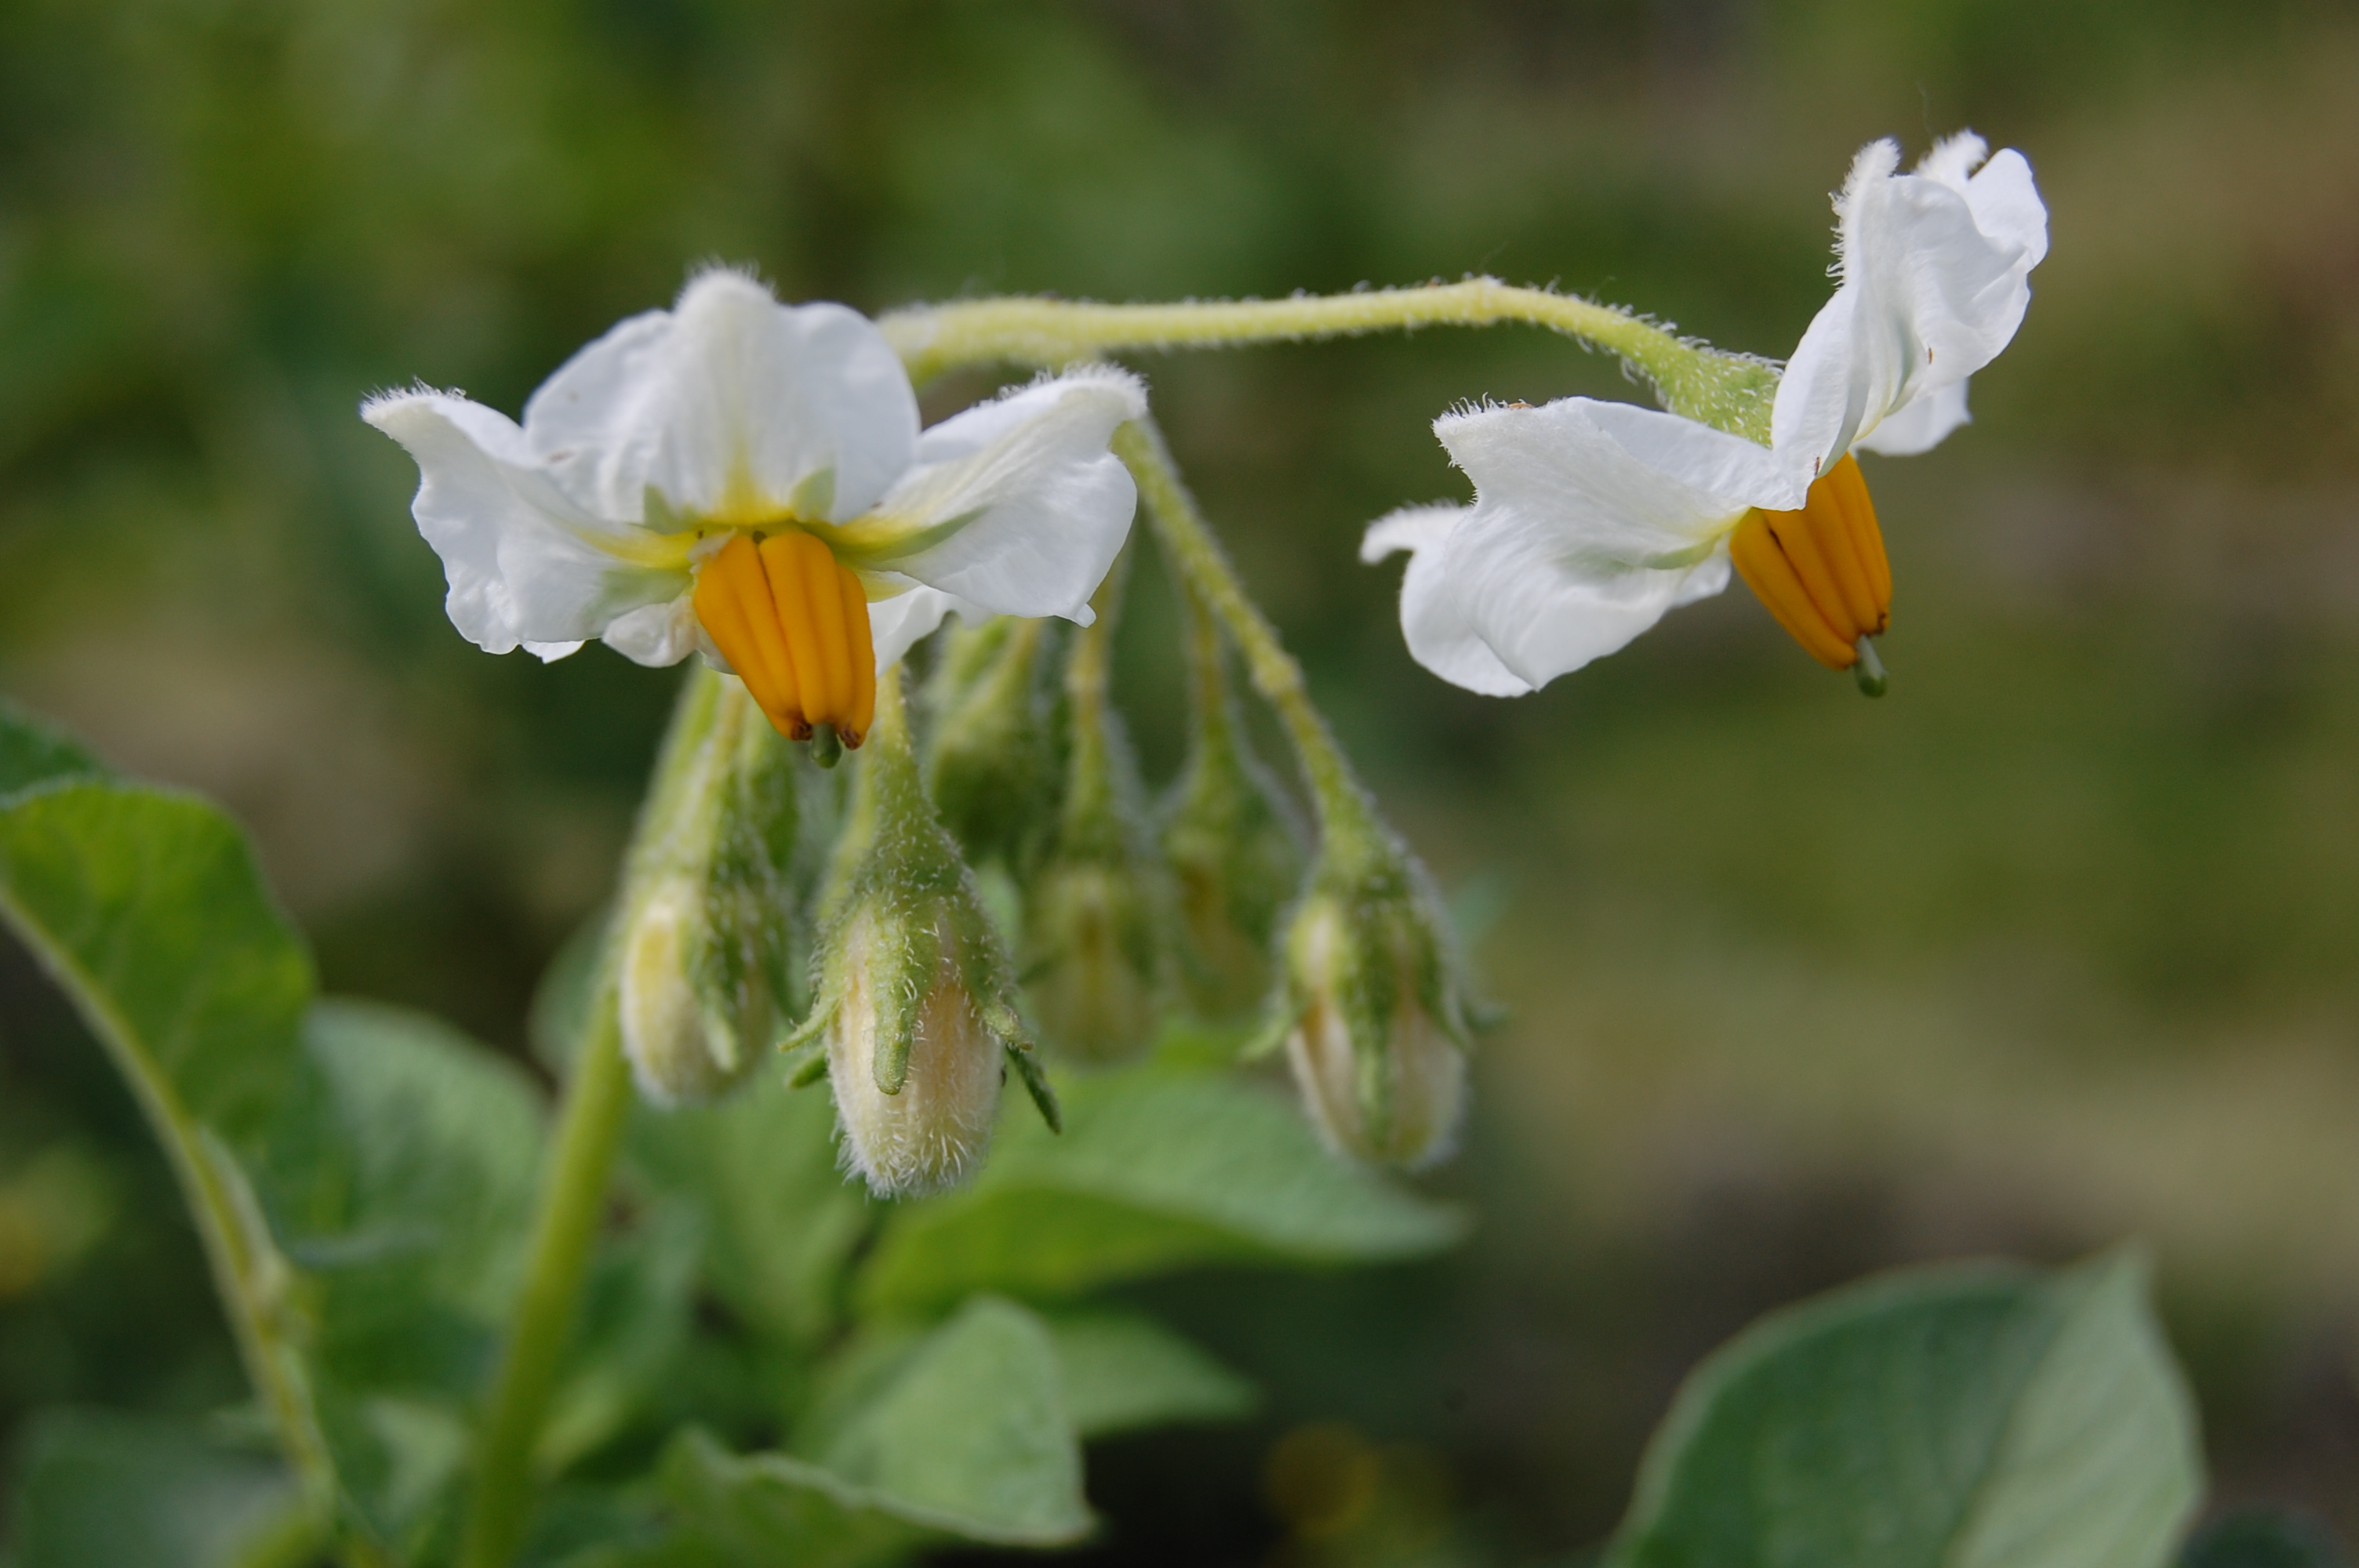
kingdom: Plantae
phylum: Tracheophyta
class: Magnoliopsida
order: Solanales
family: Solanaceae
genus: Solanum
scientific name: Solanum tuberosum
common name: Potato
